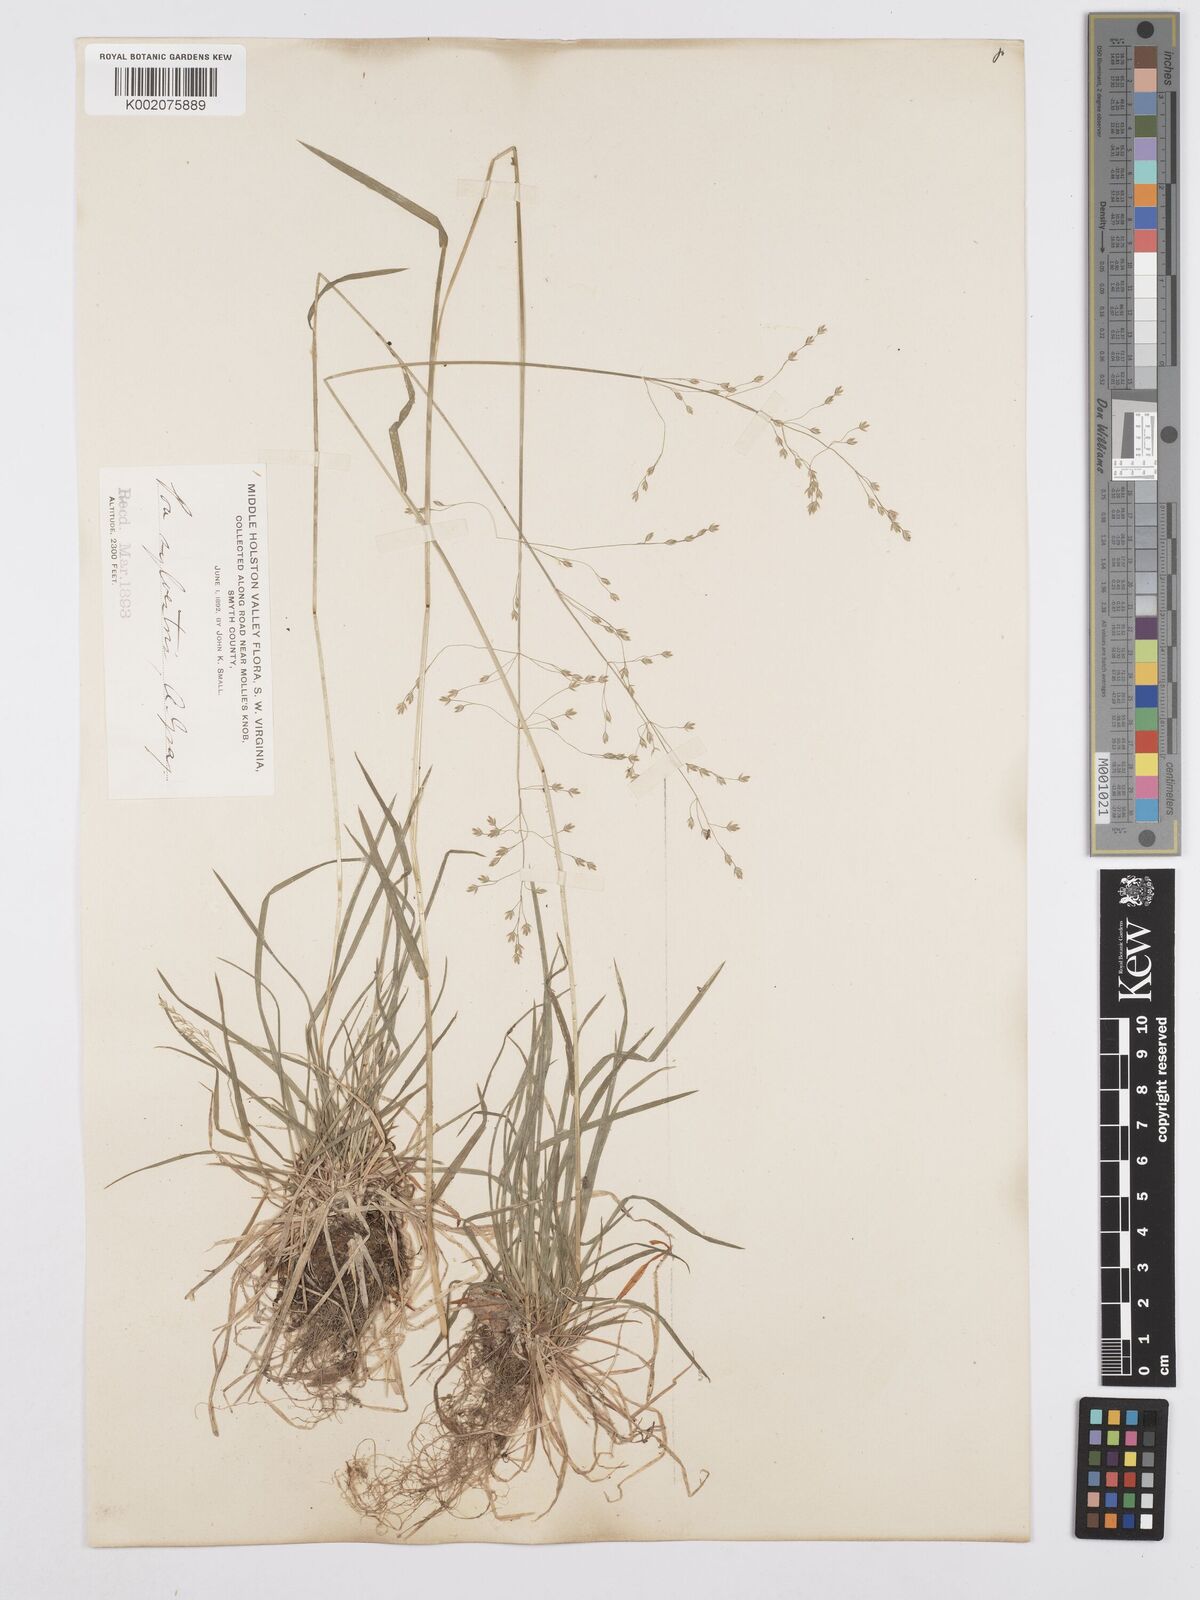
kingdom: Plantae
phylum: Tracheophyta
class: Liliopsida
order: Poales
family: Poaceae
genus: Poa
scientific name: Poa sylvestris
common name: North american woodland bluegrass
